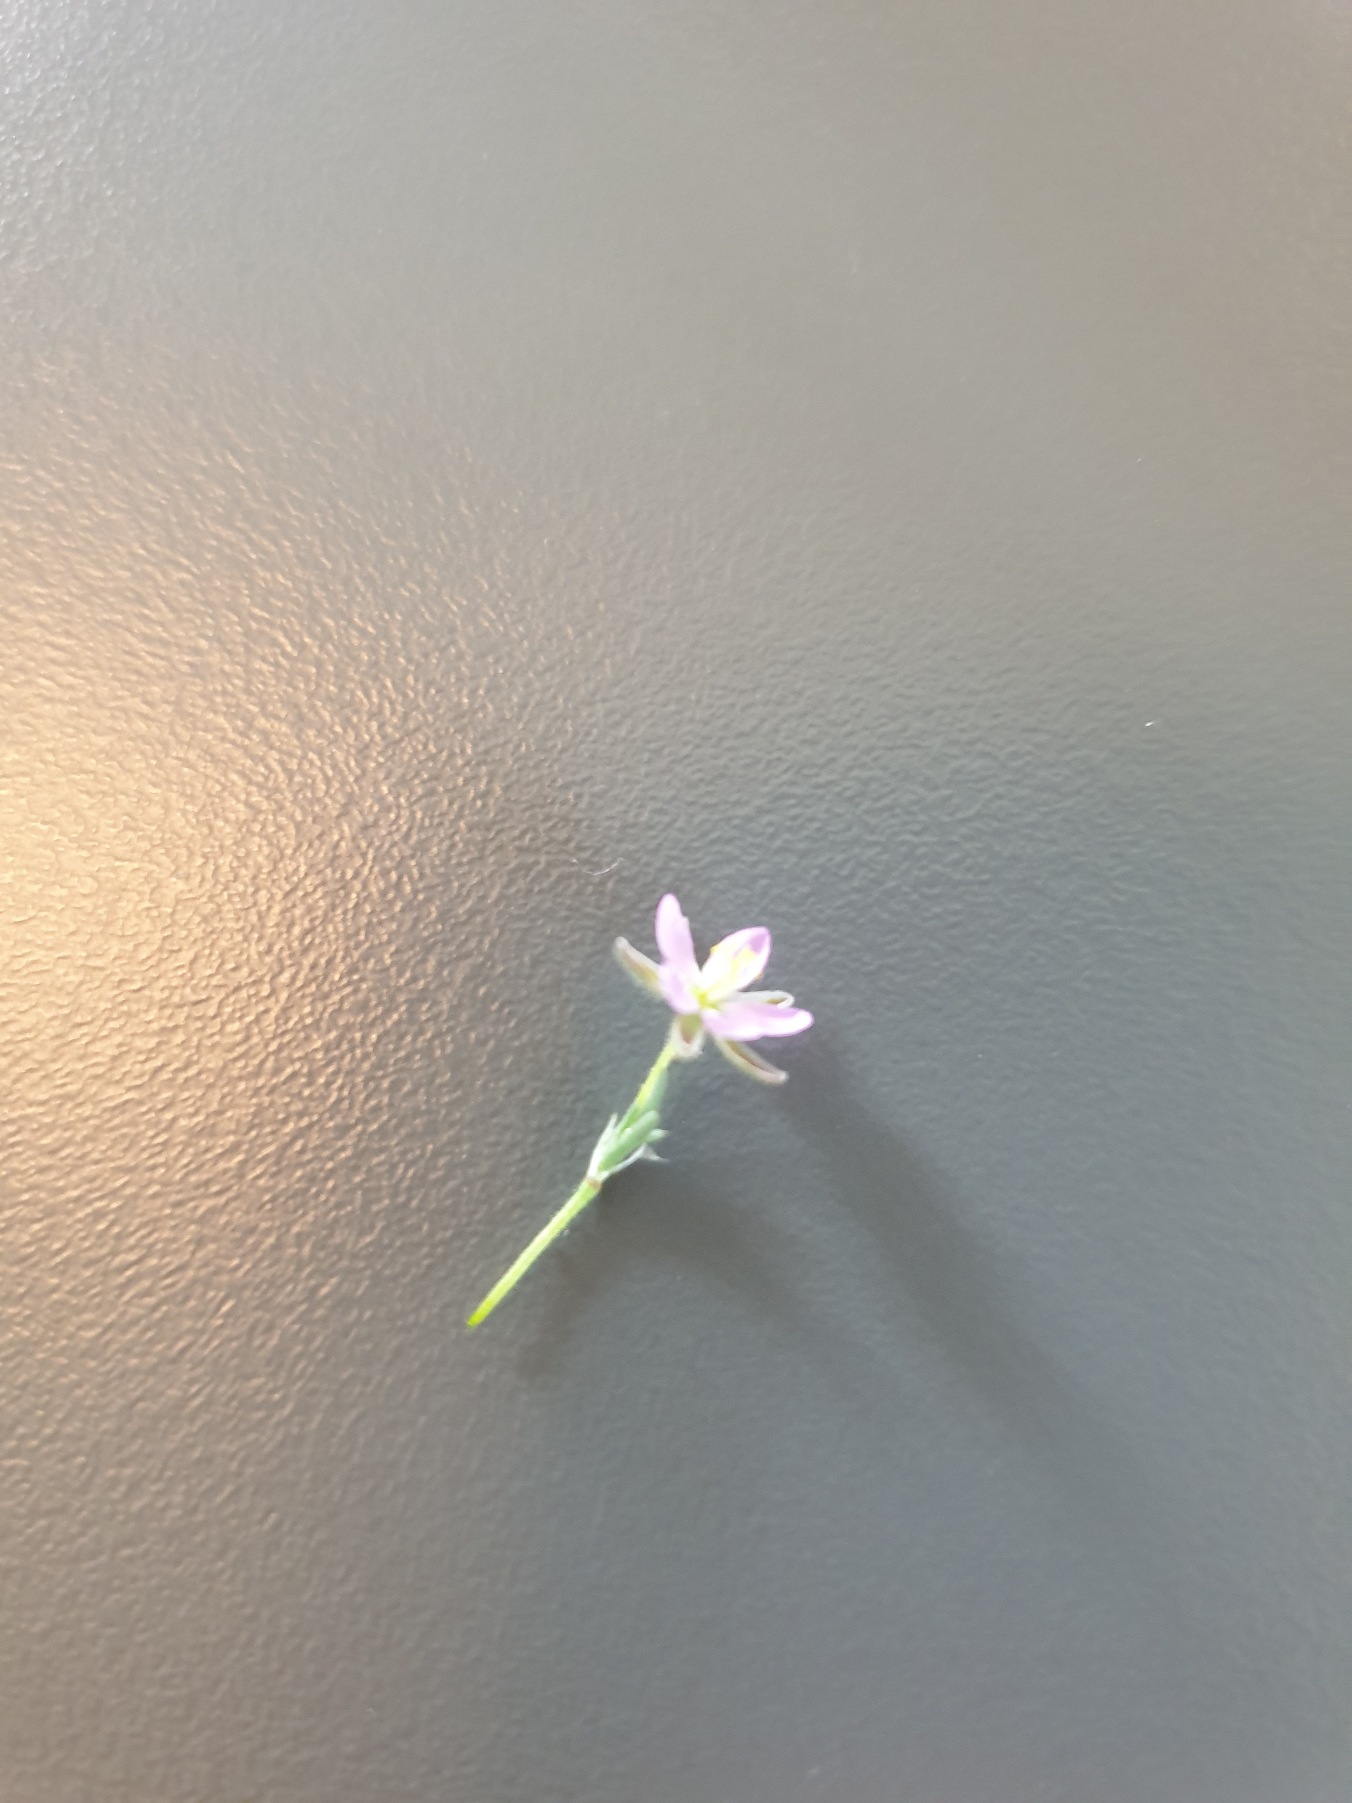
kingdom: Plantae
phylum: Tracheophyta
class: Magnoliopsida
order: Caryophyllales
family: Caryophyllaceae
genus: Spergularia
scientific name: Spergularia
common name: Hindeknæslægten
